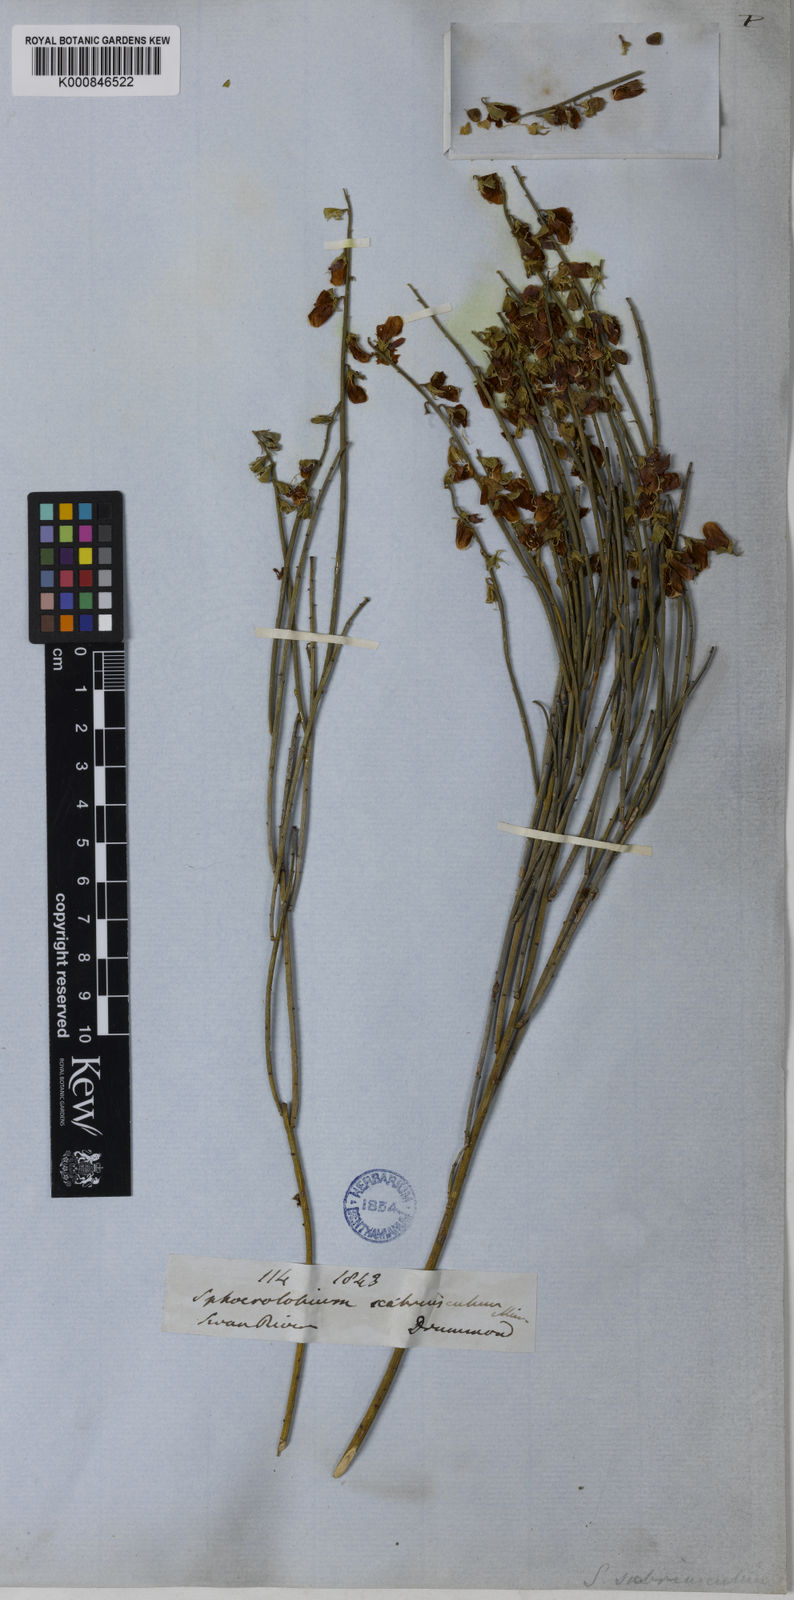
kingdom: Plantae
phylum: Tracheophyta
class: Magnoliopsida
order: Fabales
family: Fabaceae
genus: Sphaerolobium
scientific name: Sphaerolobium scabriusculum
